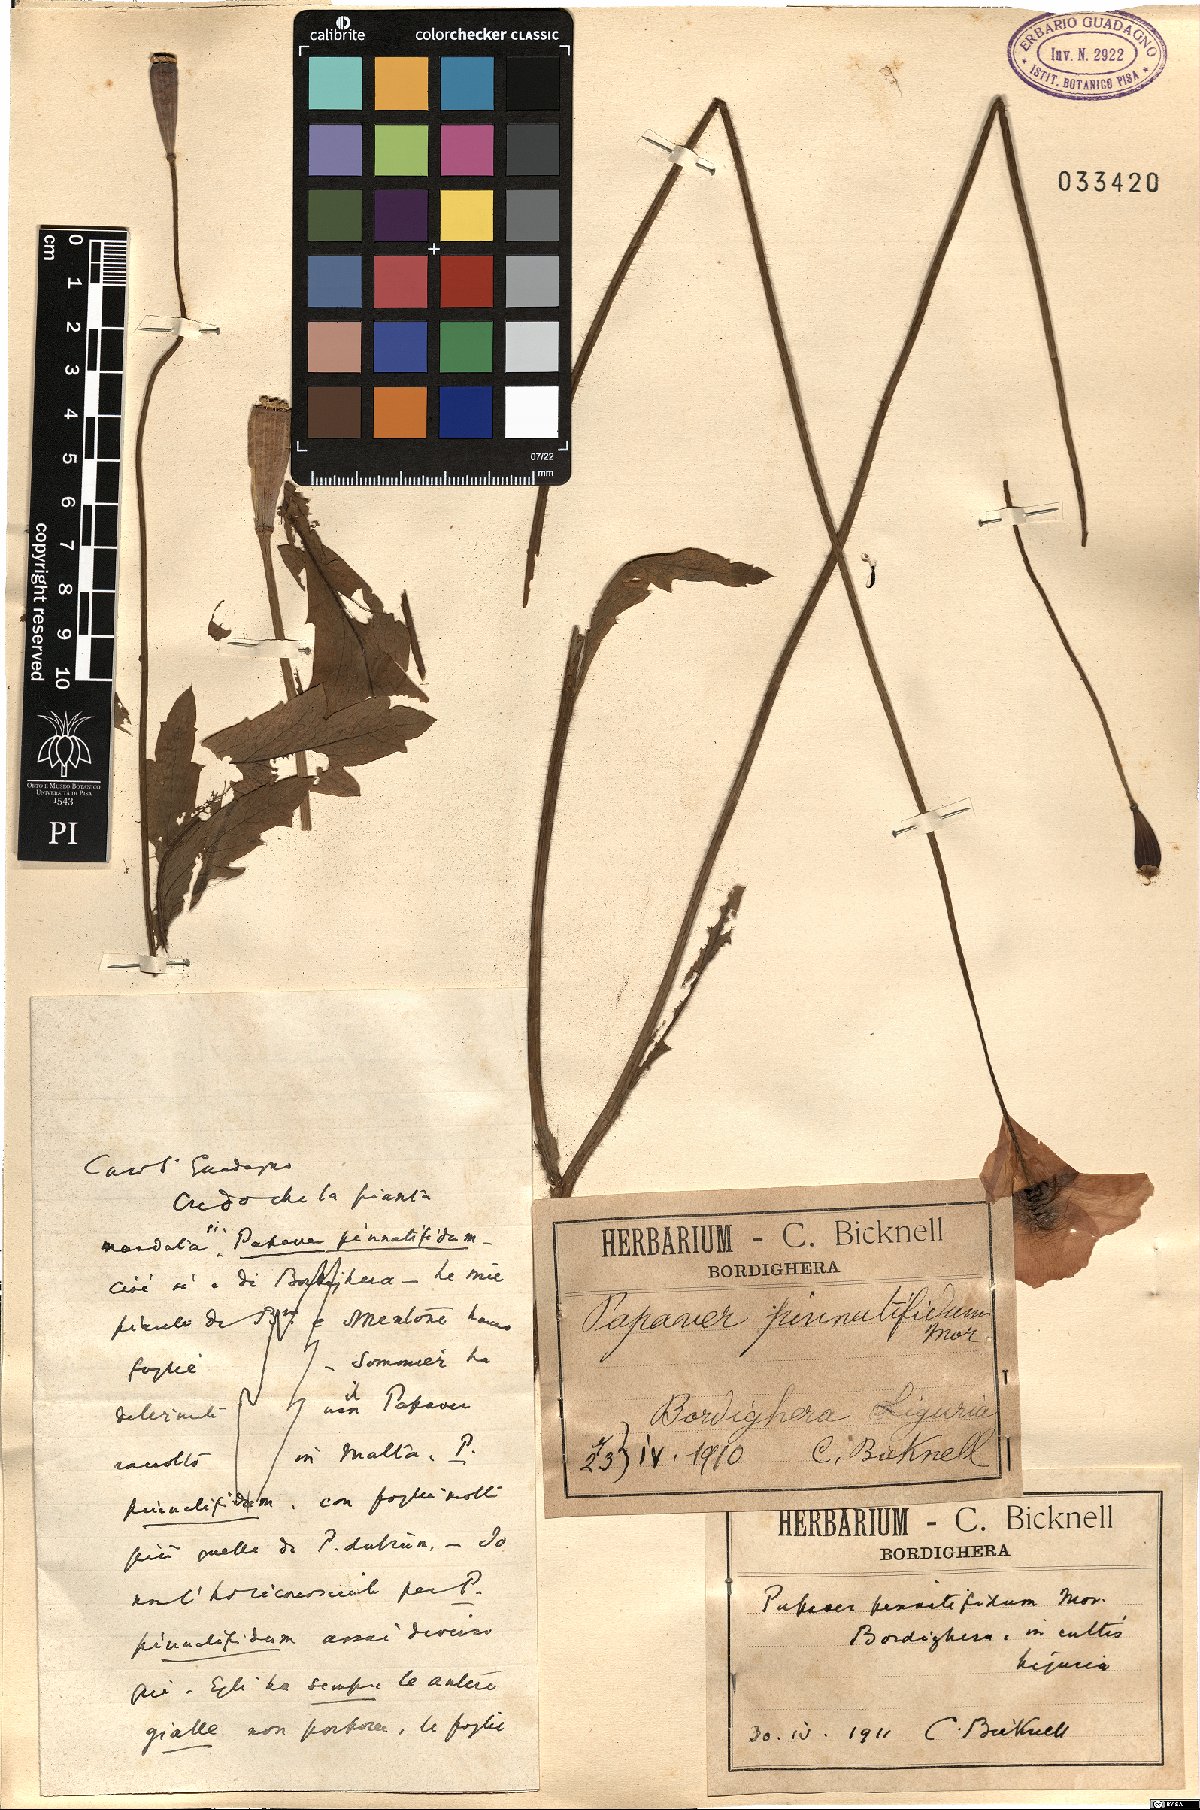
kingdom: Plantae
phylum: Tracheophyta
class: Magnoliopsida
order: Ranunculales
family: Papaveraceae
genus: Papaver
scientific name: Papaver pinnatifidum
